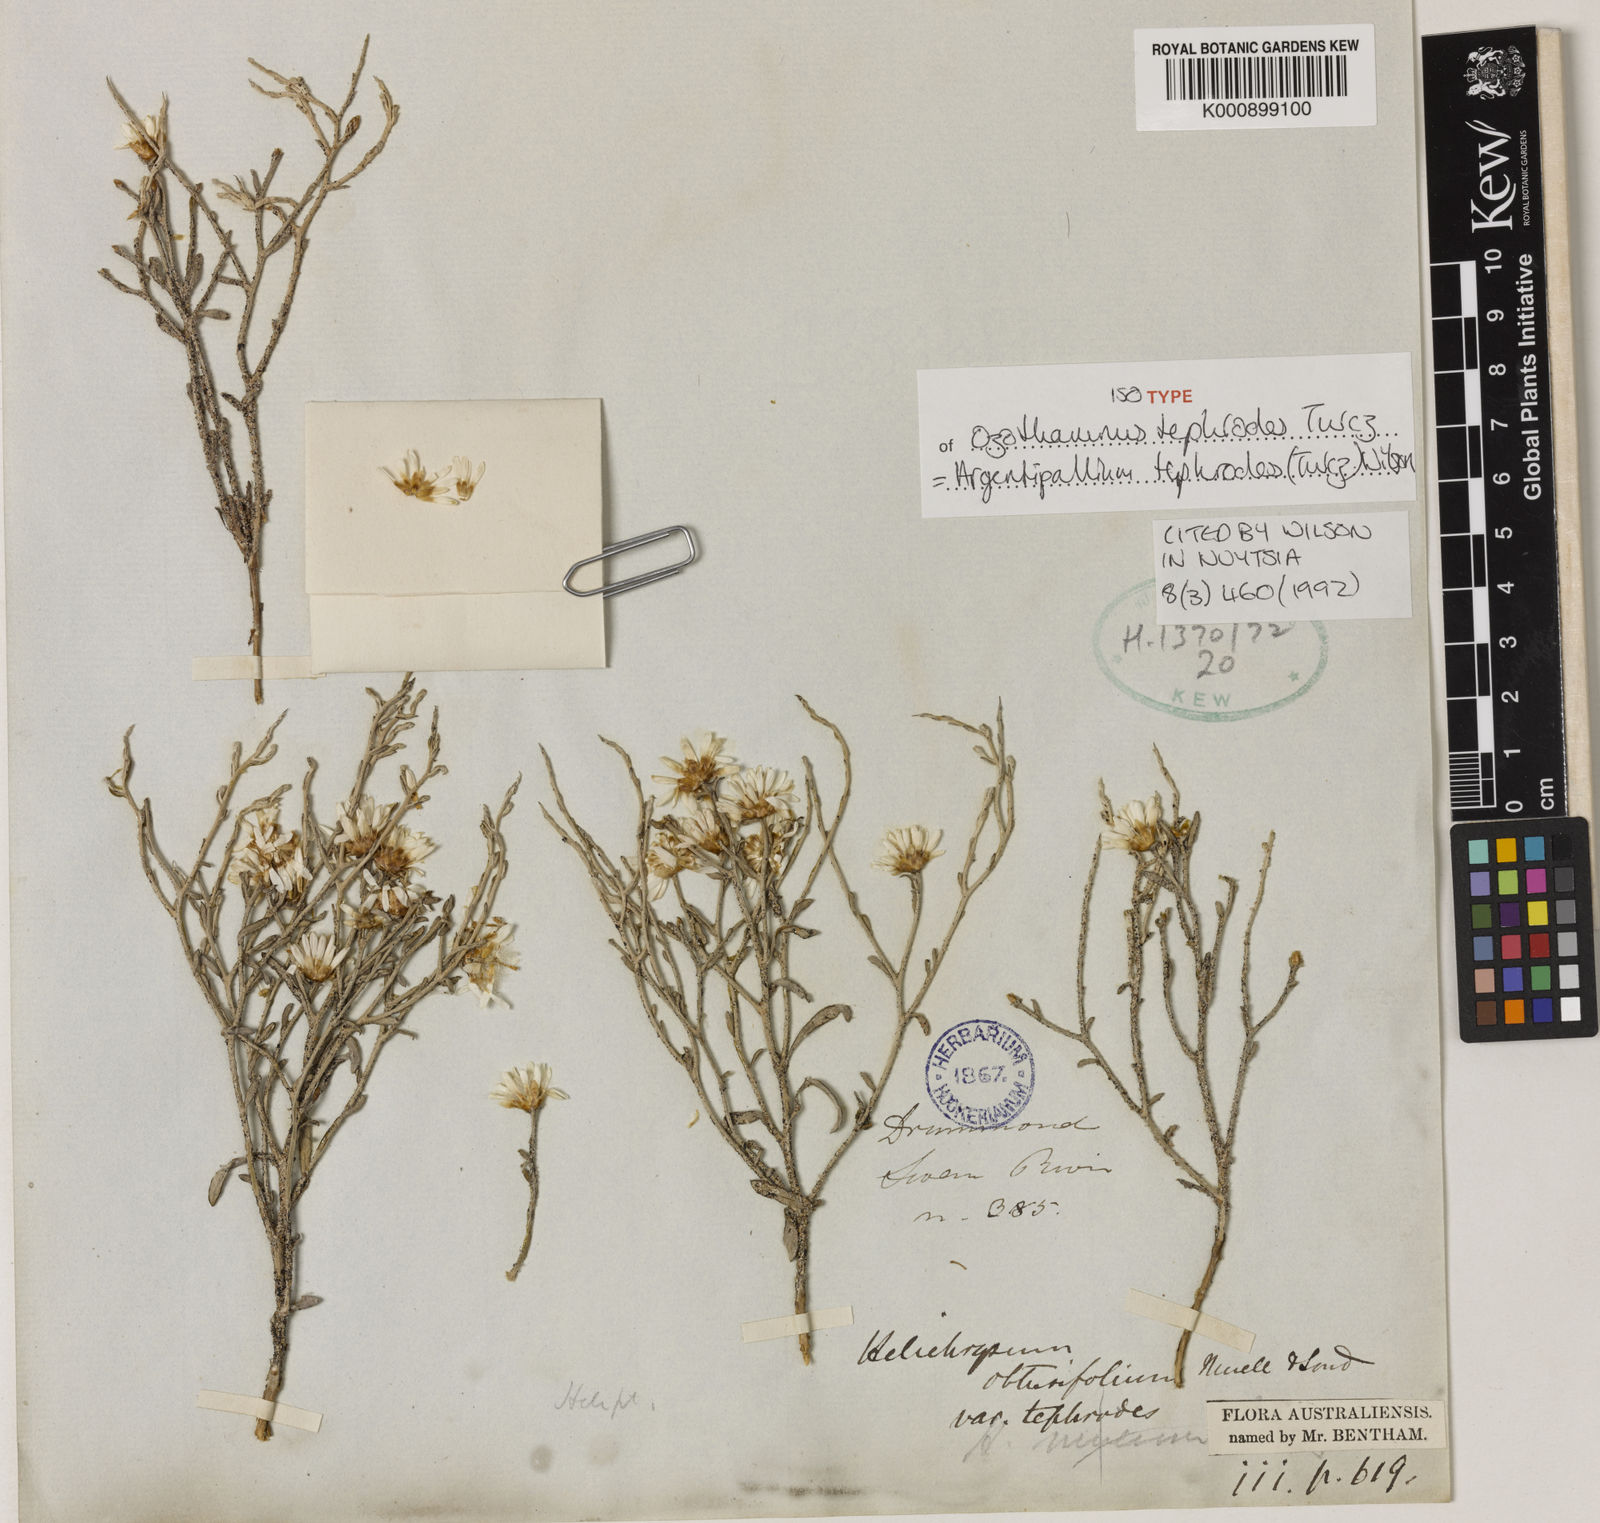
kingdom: Plantae
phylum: Tracheophyta
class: Magnoliopsida
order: Asterales
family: Asteraceae
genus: Argentipallium
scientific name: Argentipallium tephrodes
